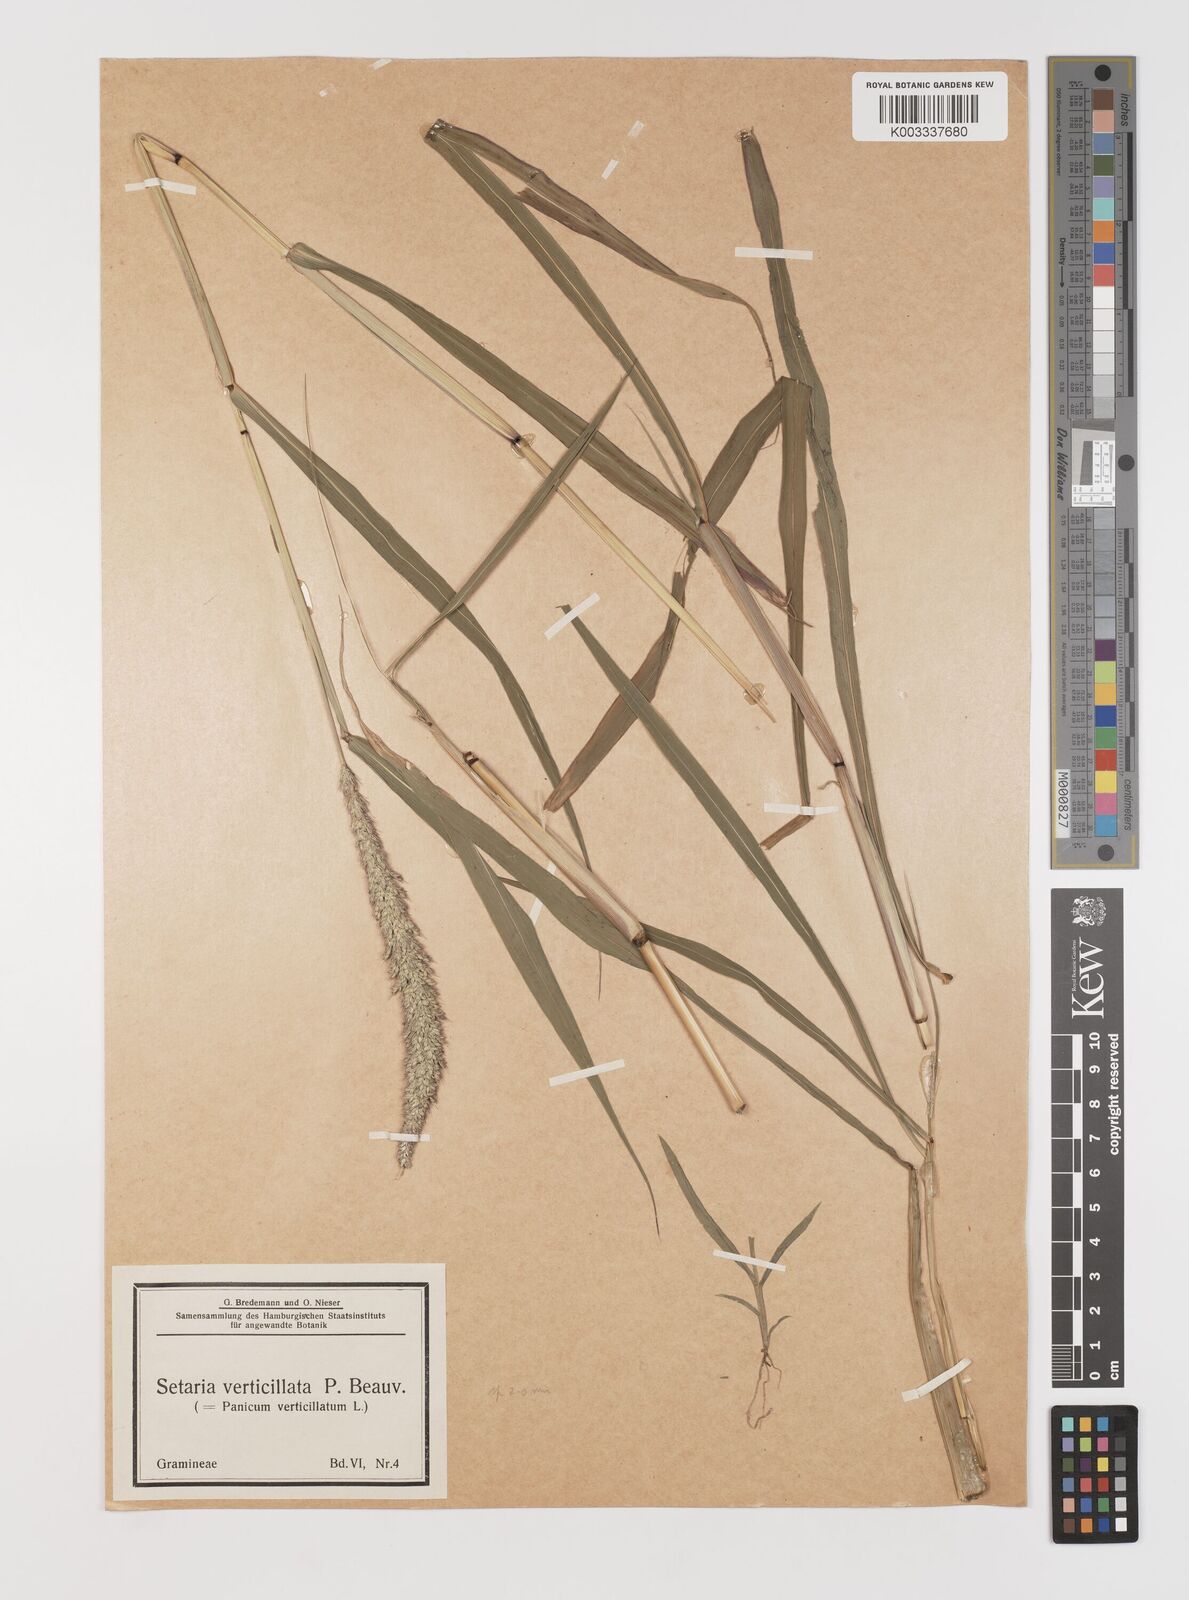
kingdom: Plantae
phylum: Tracheophyta
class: Liliopsida
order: Poales
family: Poaceae
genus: Setaria
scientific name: Setaria verticillata
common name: Hooked bristlegrass
